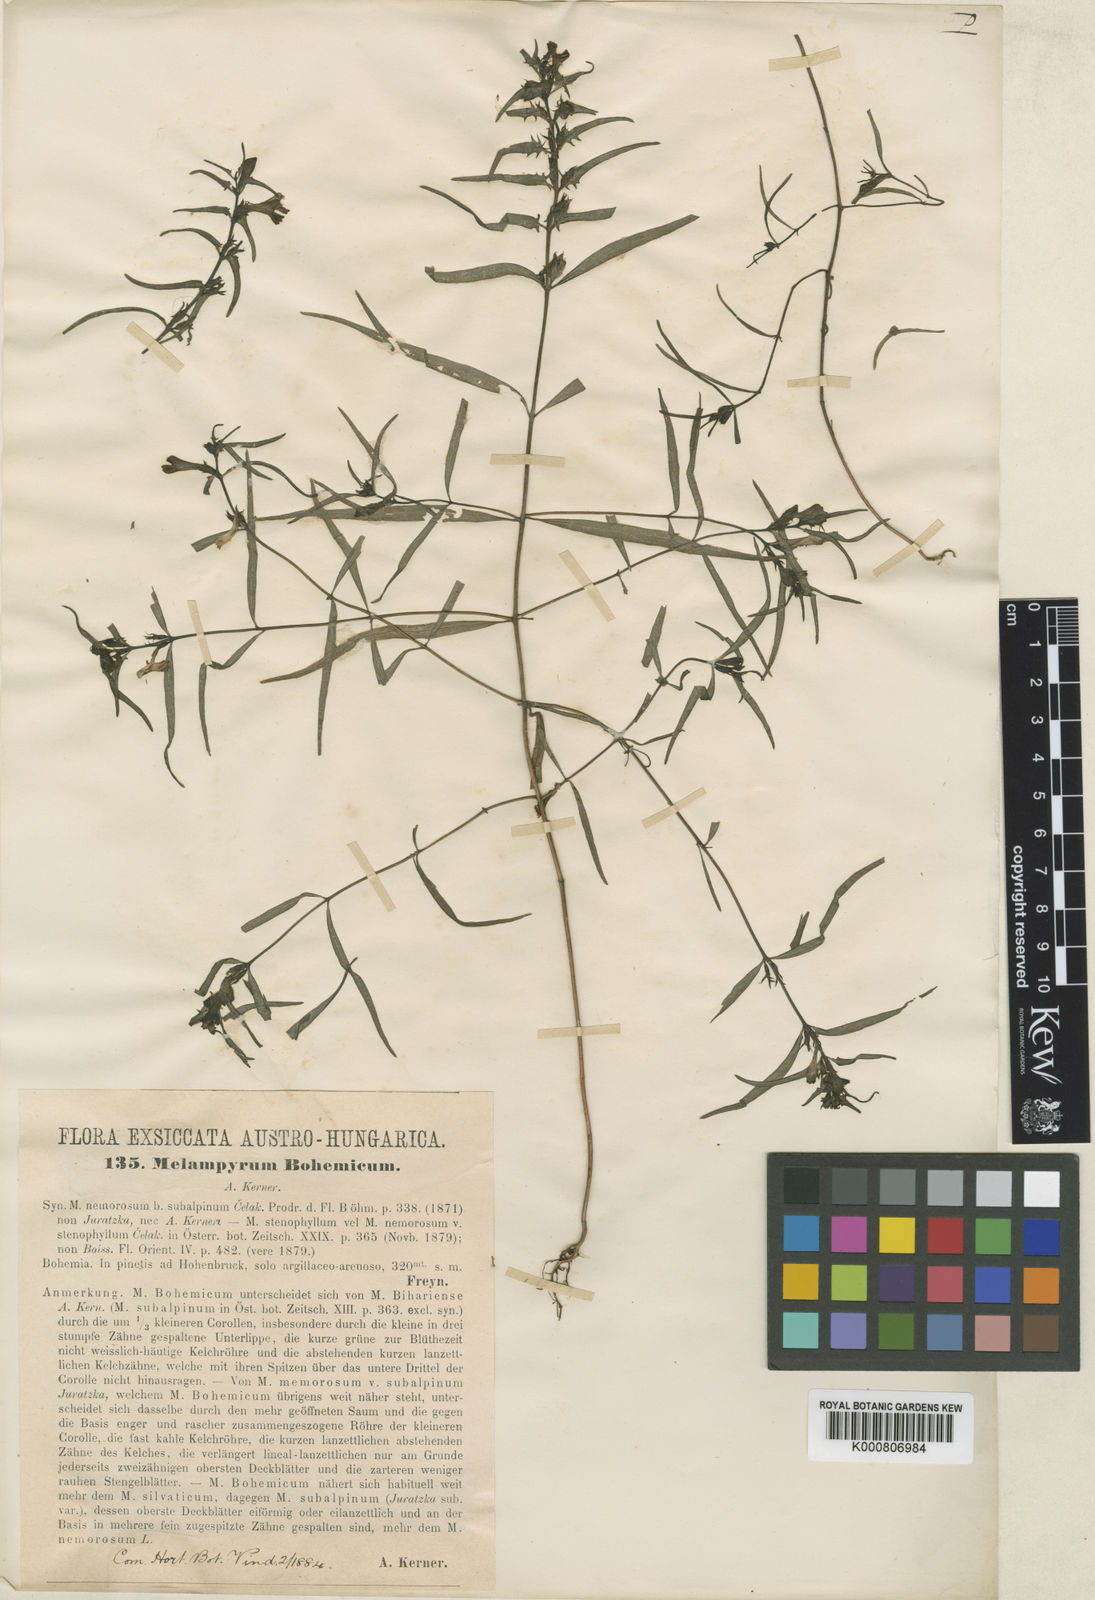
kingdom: Plantae
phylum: Tracheophyta
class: Magnoliopsida
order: Lamiales
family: Orobanchaceae
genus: Melampyrum
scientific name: Melampyrum subalpinum
